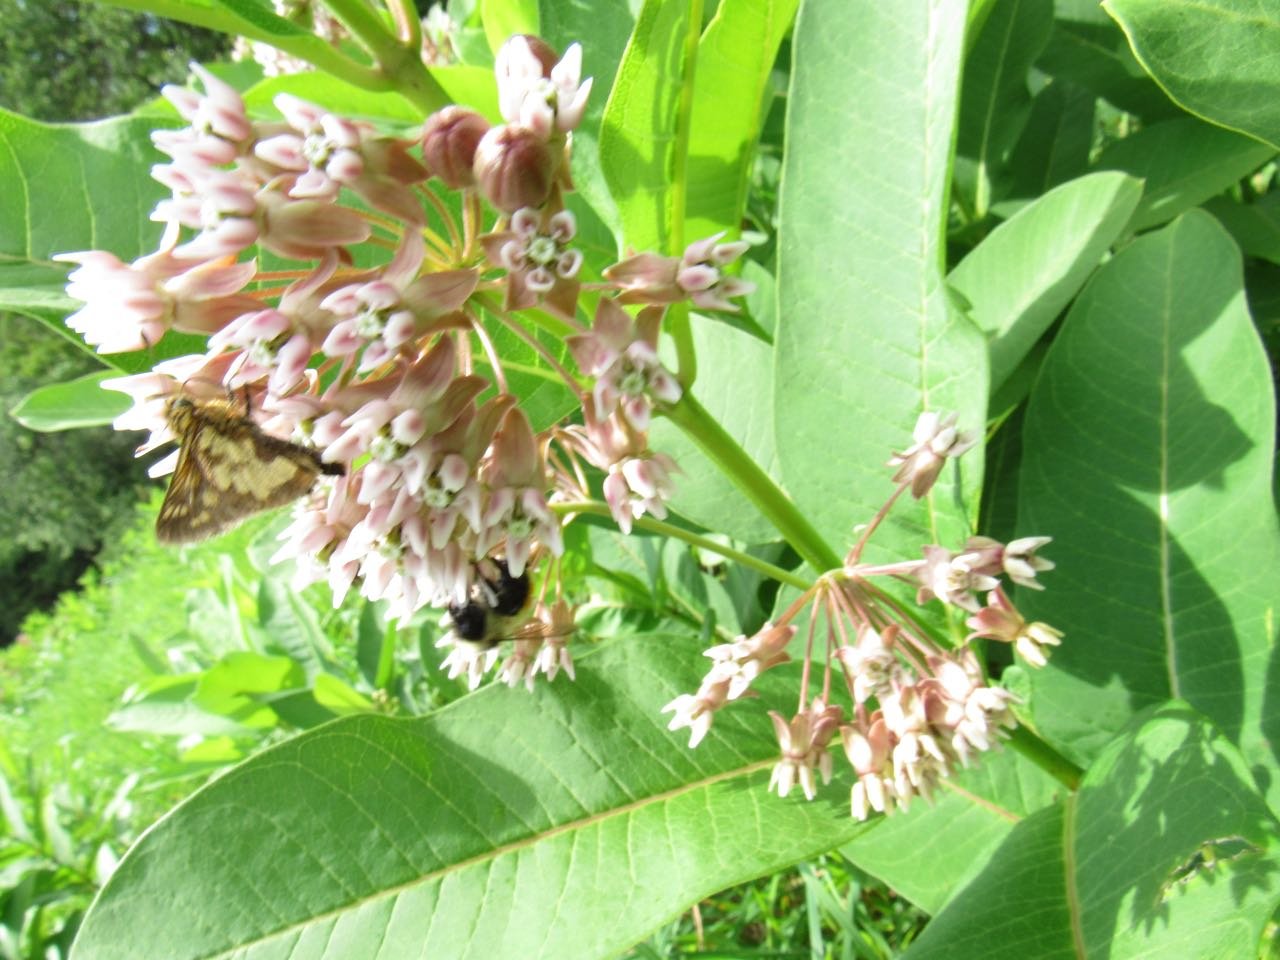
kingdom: Animalia
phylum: Arthropoda
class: Insecta
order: Lepidoptera
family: Hesperiidae
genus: Polites
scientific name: Polites coras
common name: Peck's Skipper
